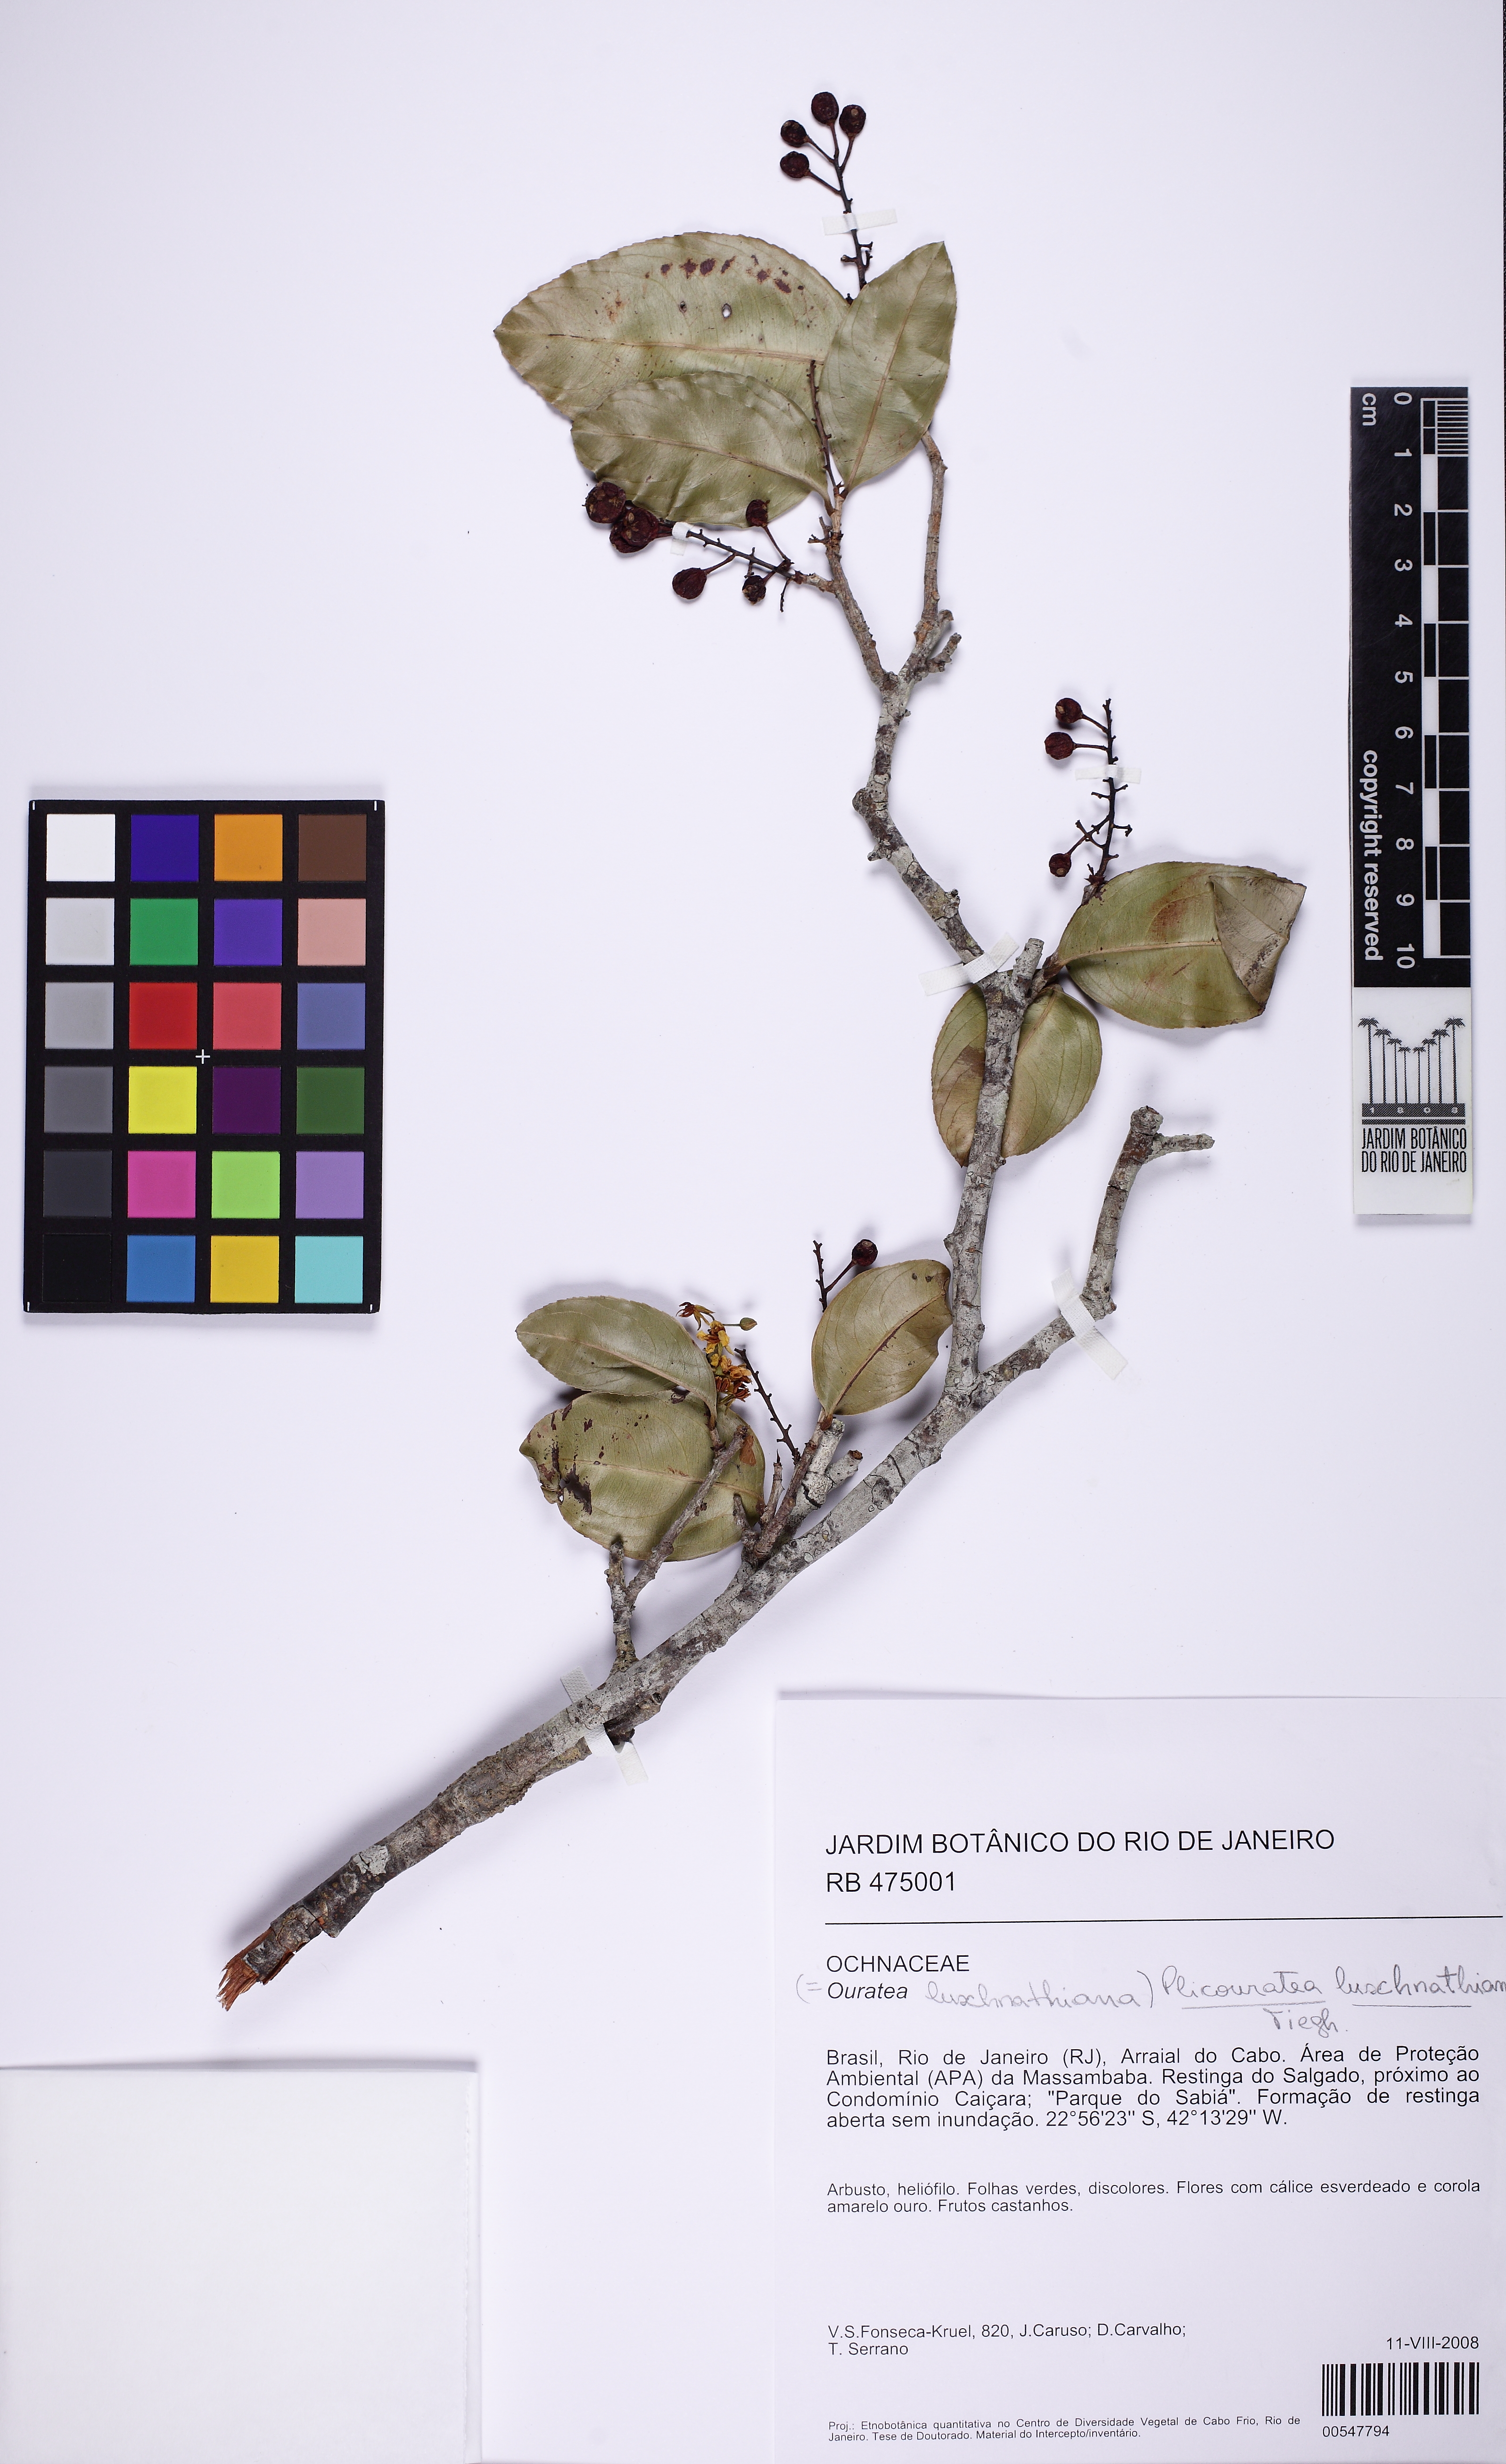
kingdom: Plantae
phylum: Tracheophyta
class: Magnoliopsida
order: Malpighiales
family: Ochnaceae
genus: Ouratea
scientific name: Ouratea
